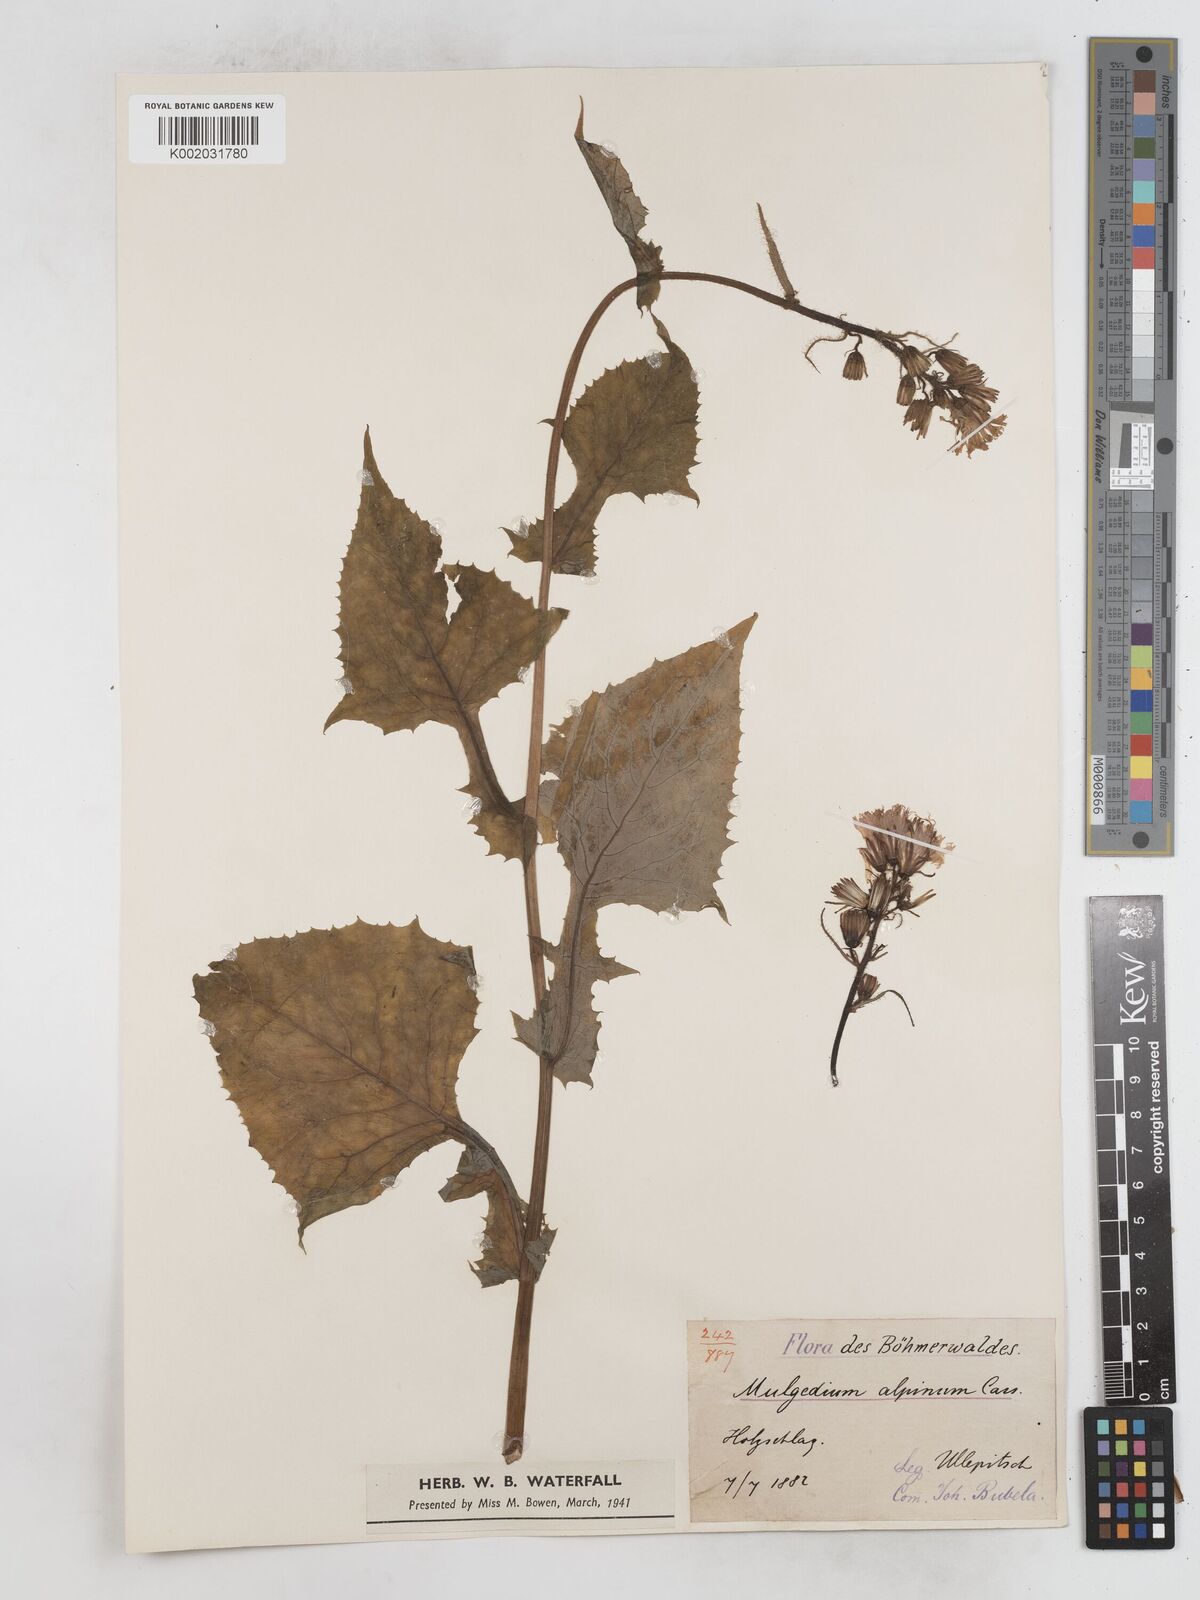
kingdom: Plantae
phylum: Tracheophyta
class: Magnoliopsida
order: Asterales
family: Asteraceae
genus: Cicerbita
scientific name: Cicerbita alpina
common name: Alpine blue-sow-thistle
